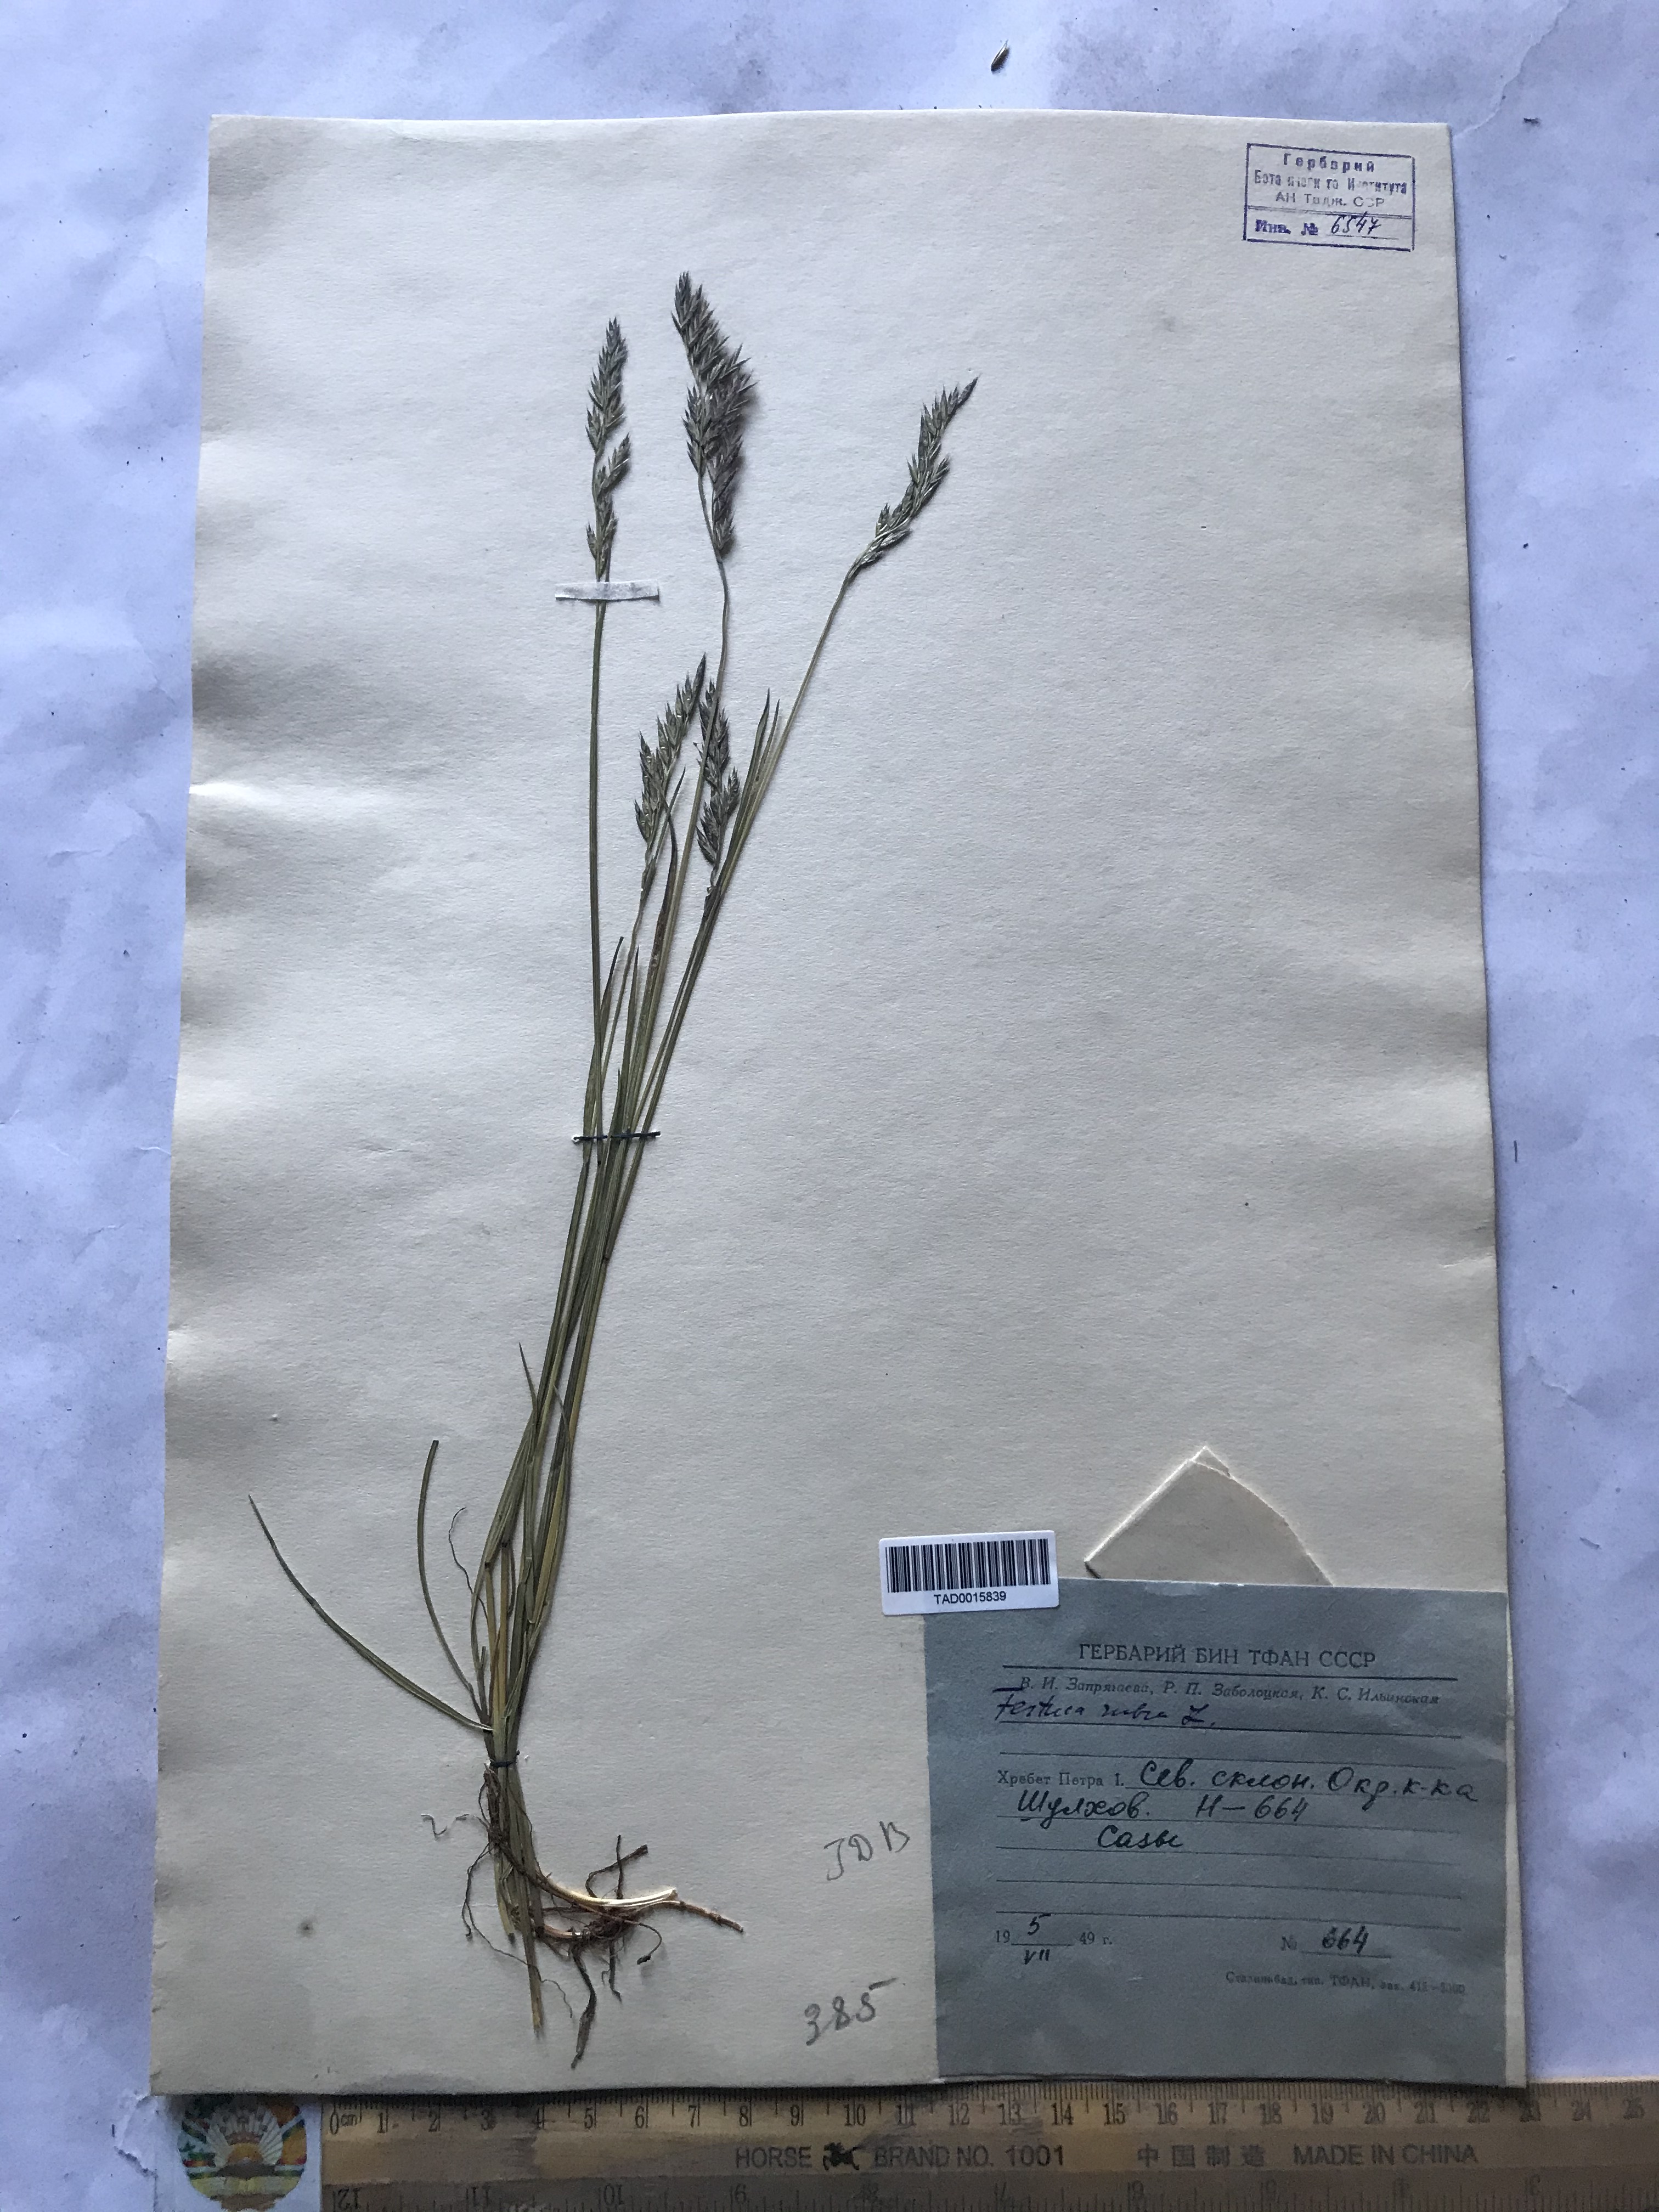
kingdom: Plantae
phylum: Tracheophyta
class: Liliopsida
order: Poales
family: Poaceae
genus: Festuca
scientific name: Festuca rubra
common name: Red fescue
